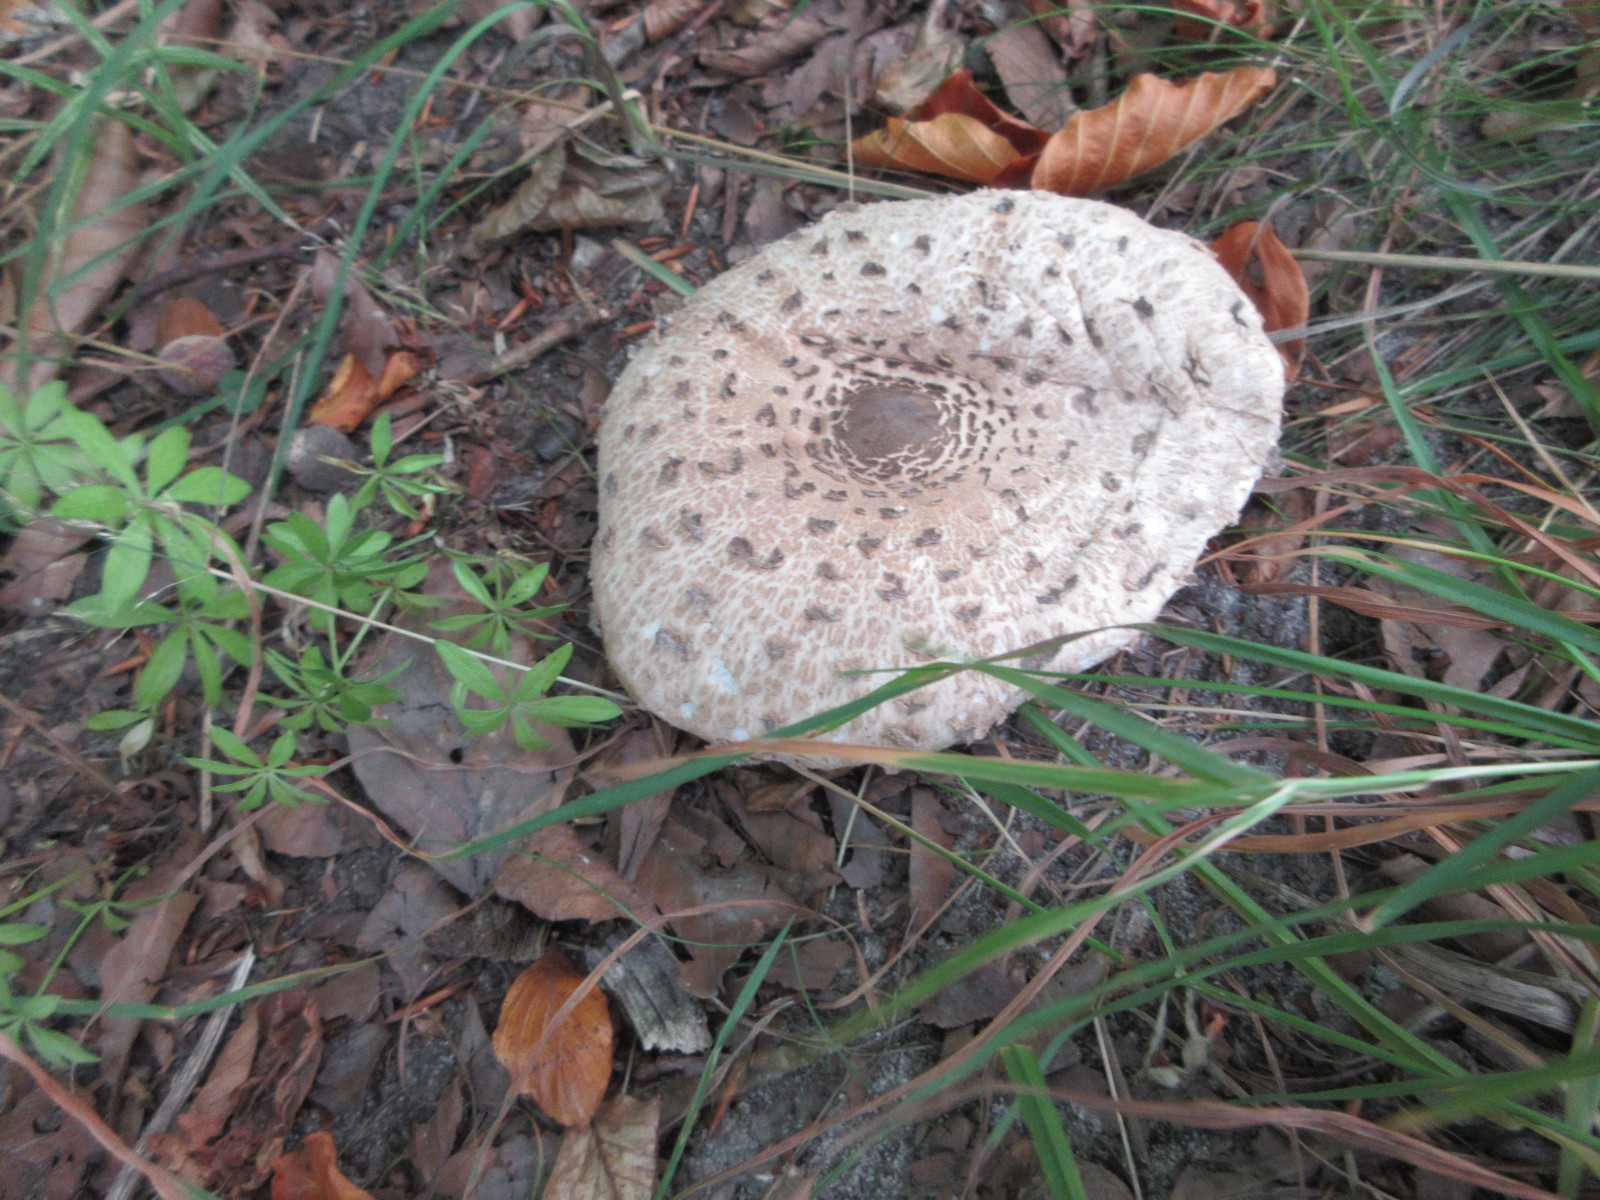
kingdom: Fungi
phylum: Basidiomycota
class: Agaricomycetes
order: Agaricales
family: Agaricaceae
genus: Macrolepiota
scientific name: Macrolepiota procera
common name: stor kæmpeparasolhat
